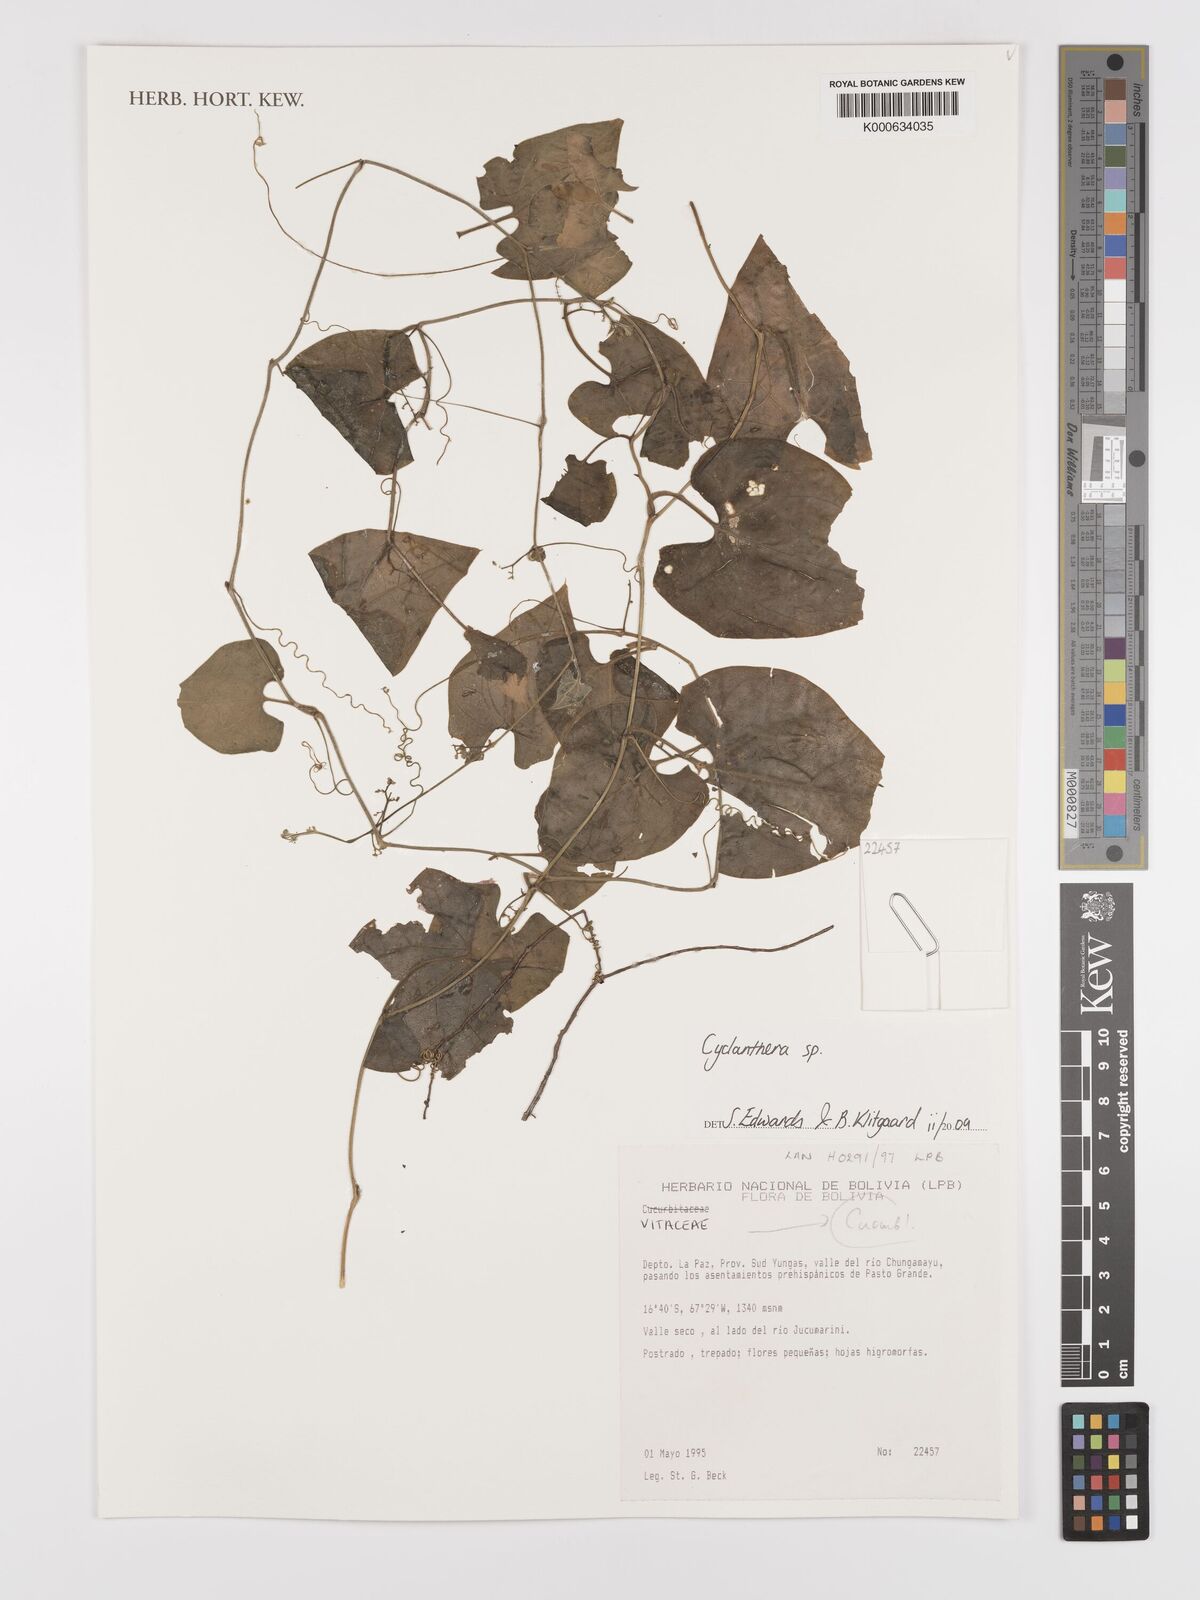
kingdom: Plantae
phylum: Tracheophyta
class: Magnoliopsida
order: Cucurbitales
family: Cucurbitaceae
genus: Cyclanthera
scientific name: Cyclanthera
